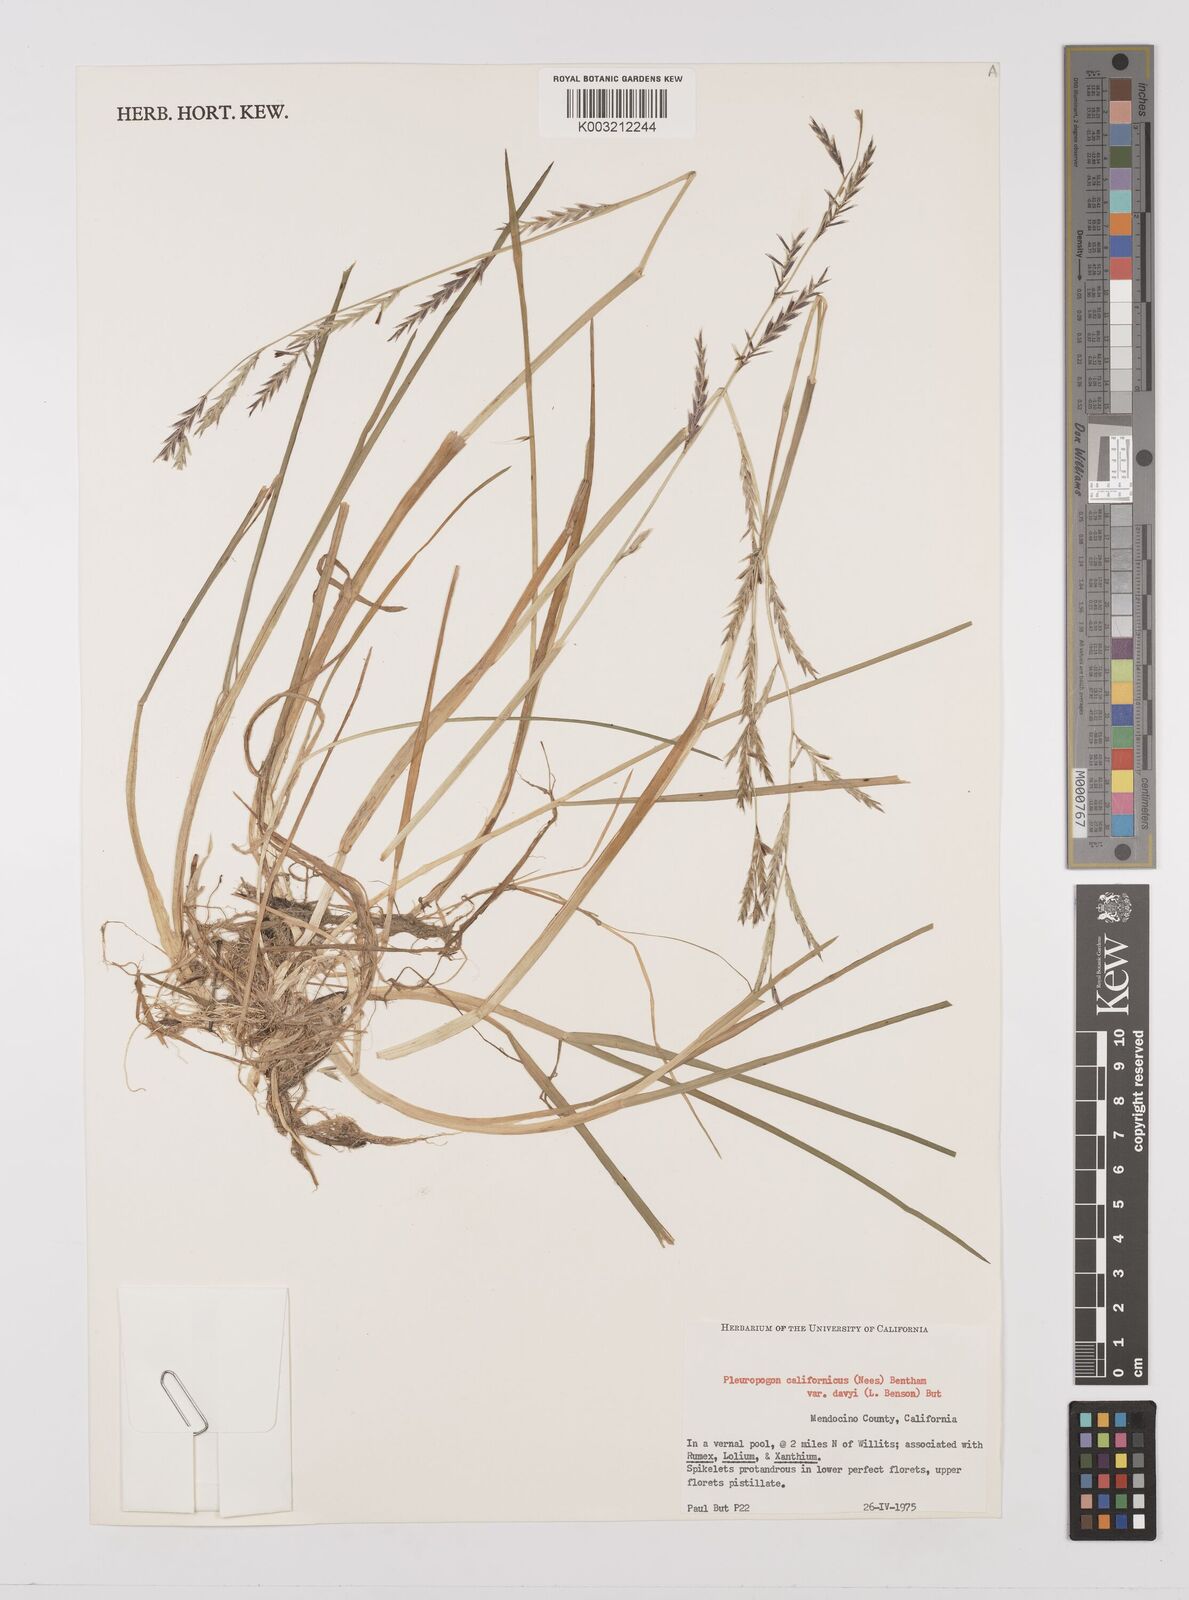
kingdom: Plantae
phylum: Tracheophyta
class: Liliopsida
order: Poales
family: Poaceae
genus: Pleuropogon
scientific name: Pleuropogon californicus
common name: California semaphore grass
